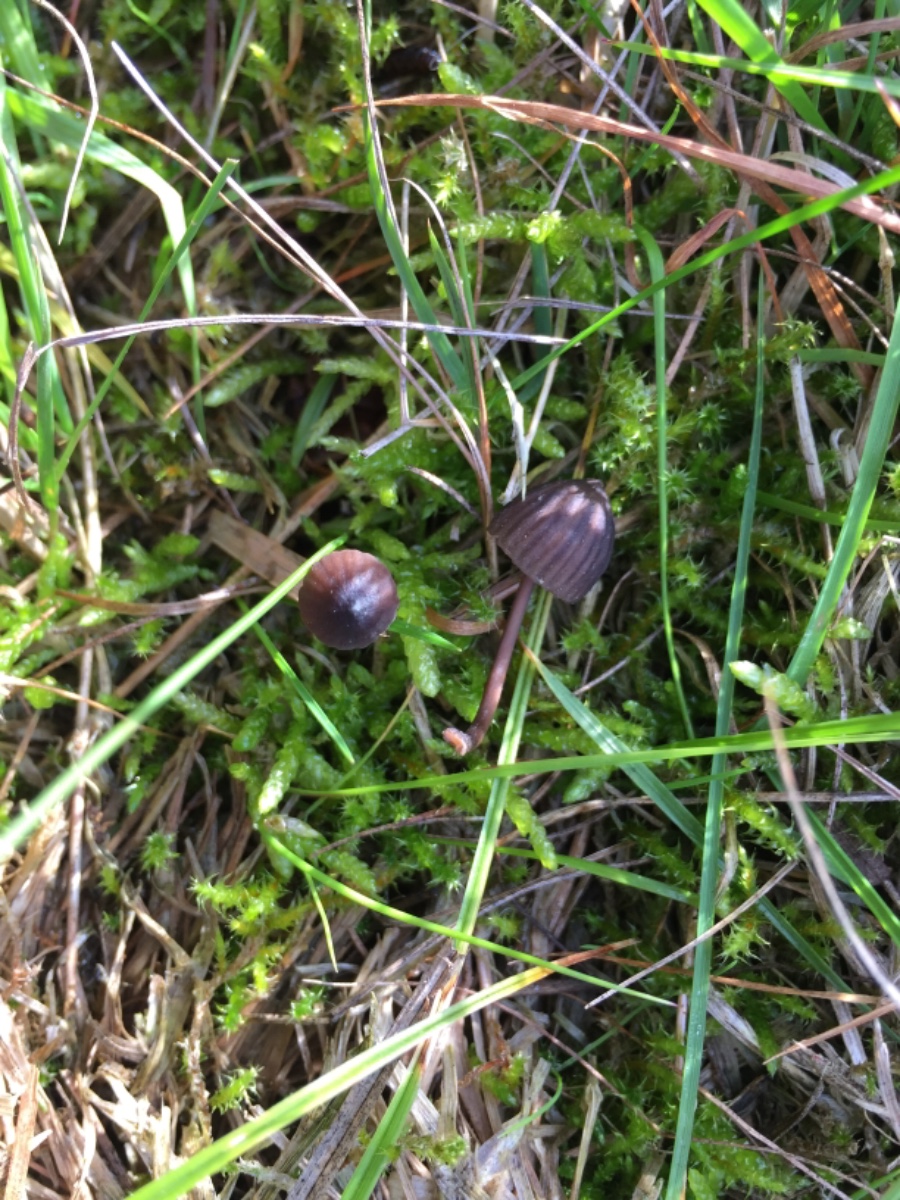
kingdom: Fungi
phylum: Basidiomycota
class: Agaricomycetes
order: Agaricales
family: Mycenaceae
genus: Mycena
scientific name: Mycena galopus
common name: hvidmælket huesvamp
